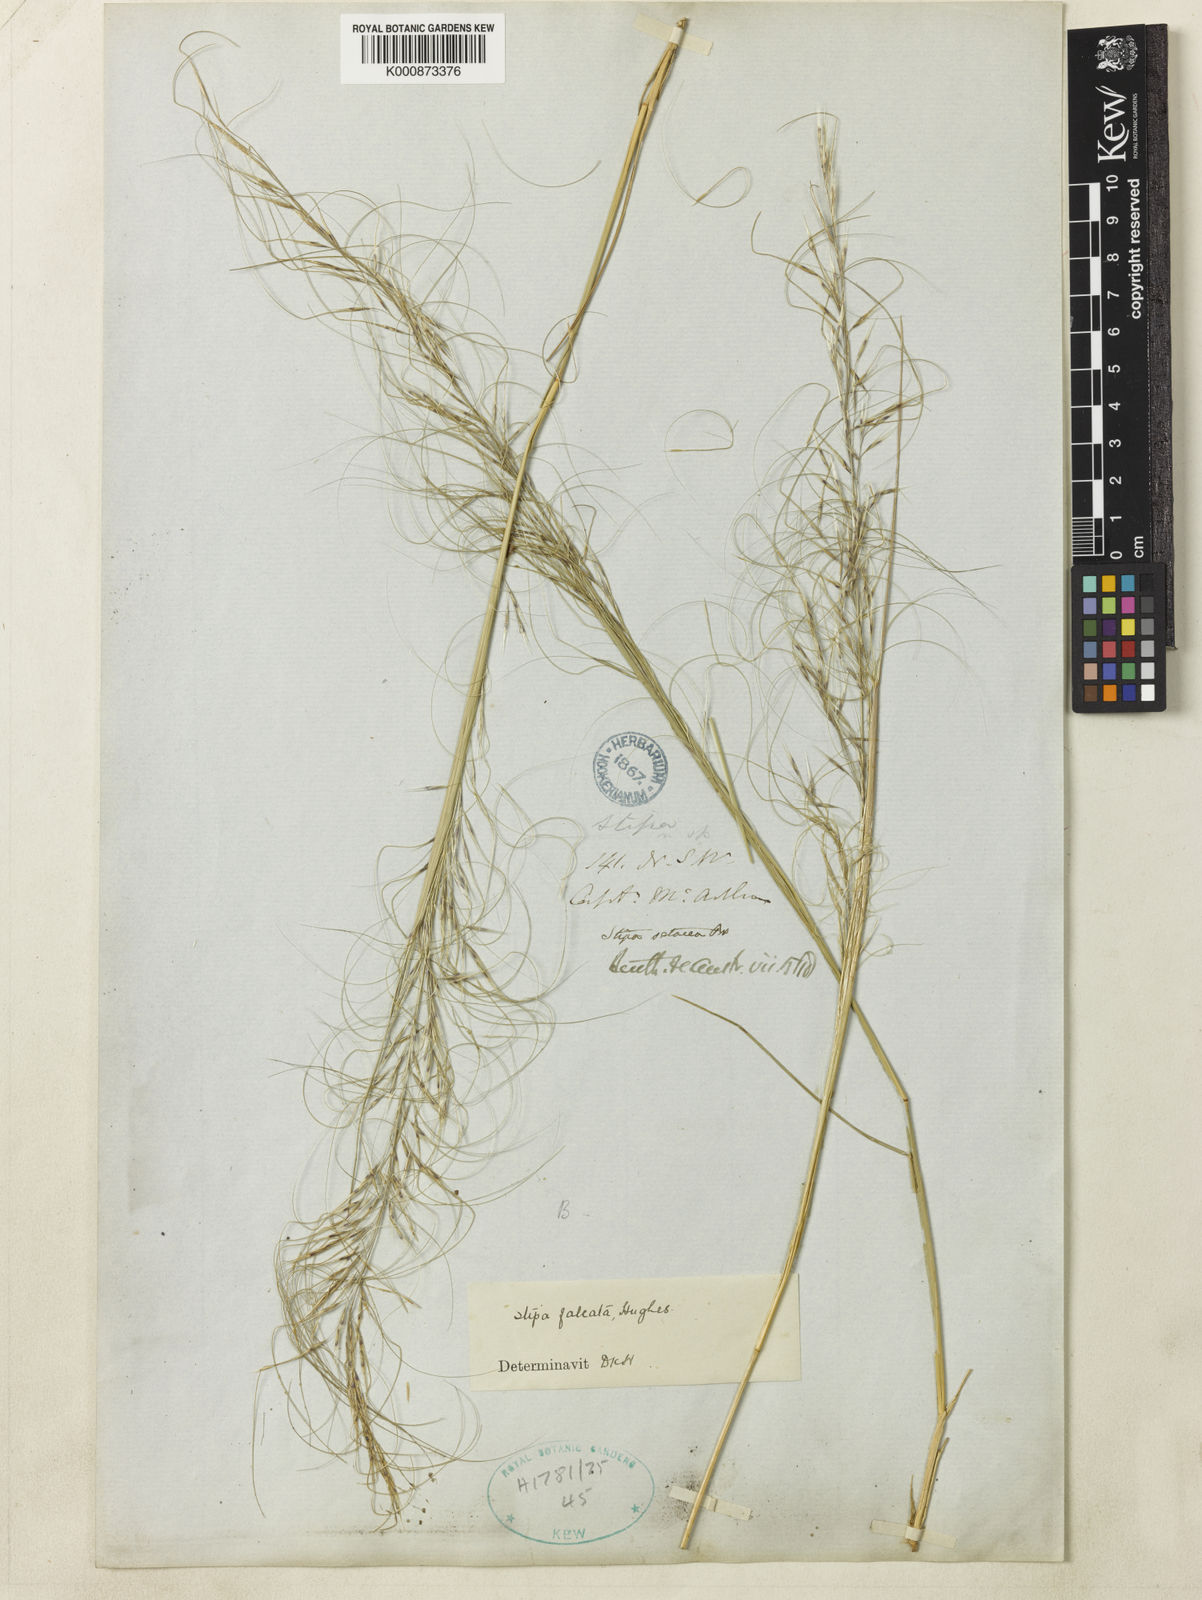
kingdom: Plantae
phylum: Tracheophyta
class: Liliopsida
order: Poales
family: Poaceae
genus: Austrostipa
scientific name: Austrostipa scabra
